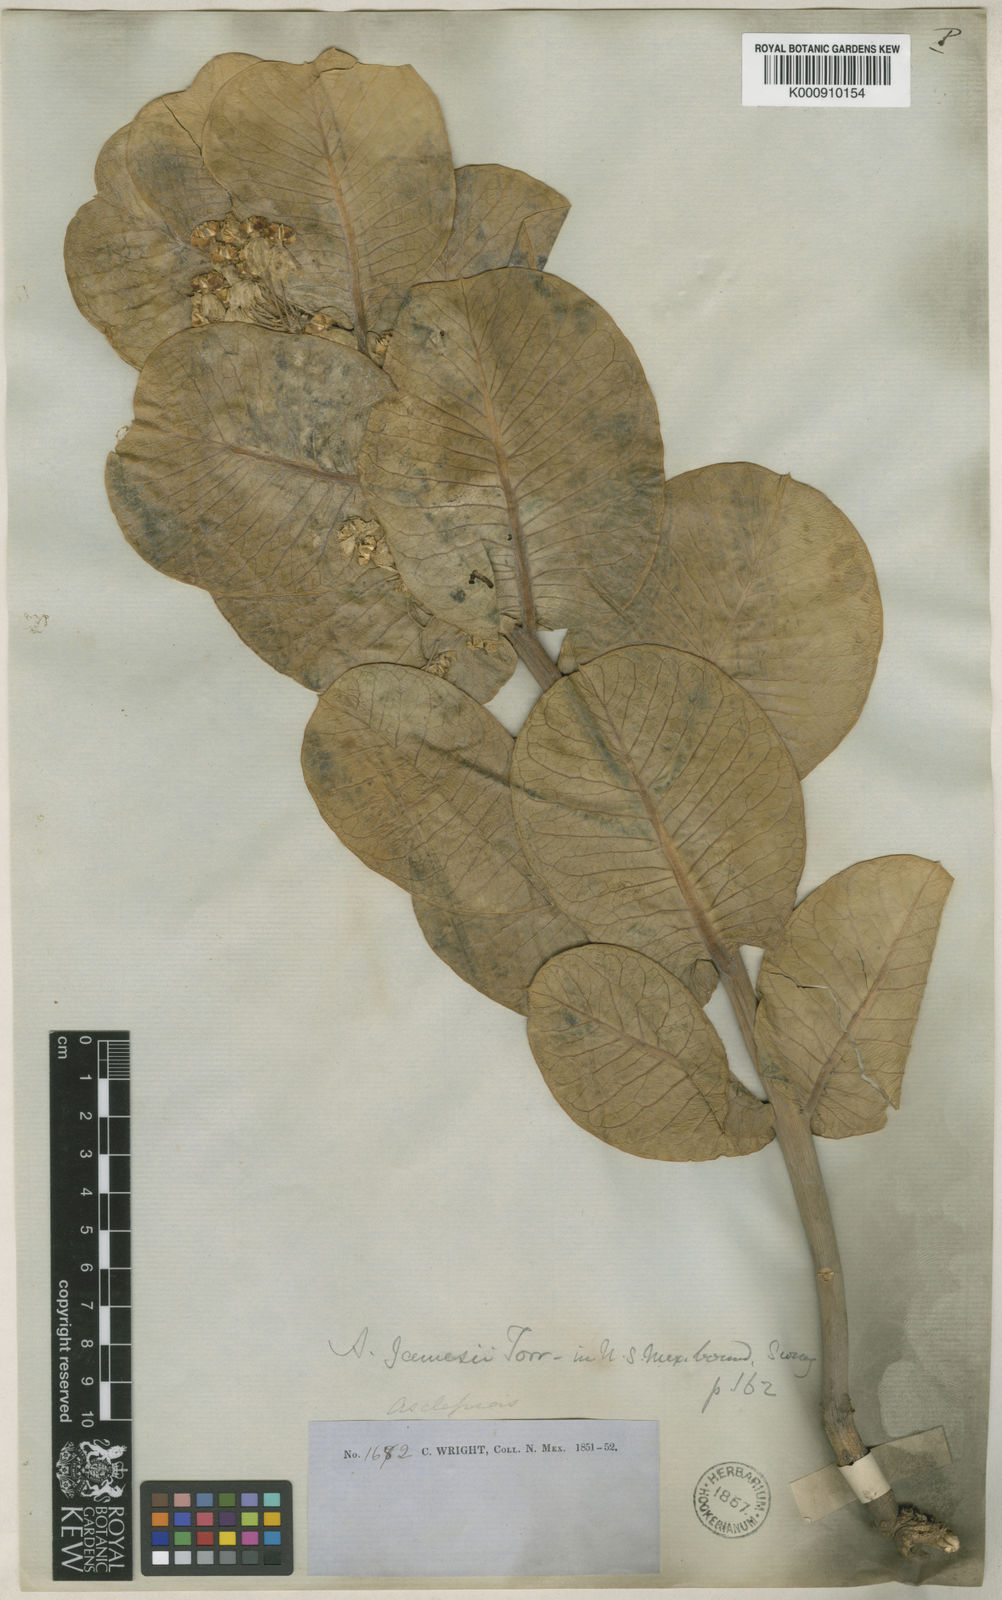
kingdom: Plantae
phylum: Tracheophyta
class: Magnoliopsida
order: Gentianales
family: Apocynaceae
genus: Asclepias
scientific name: Asclepias
